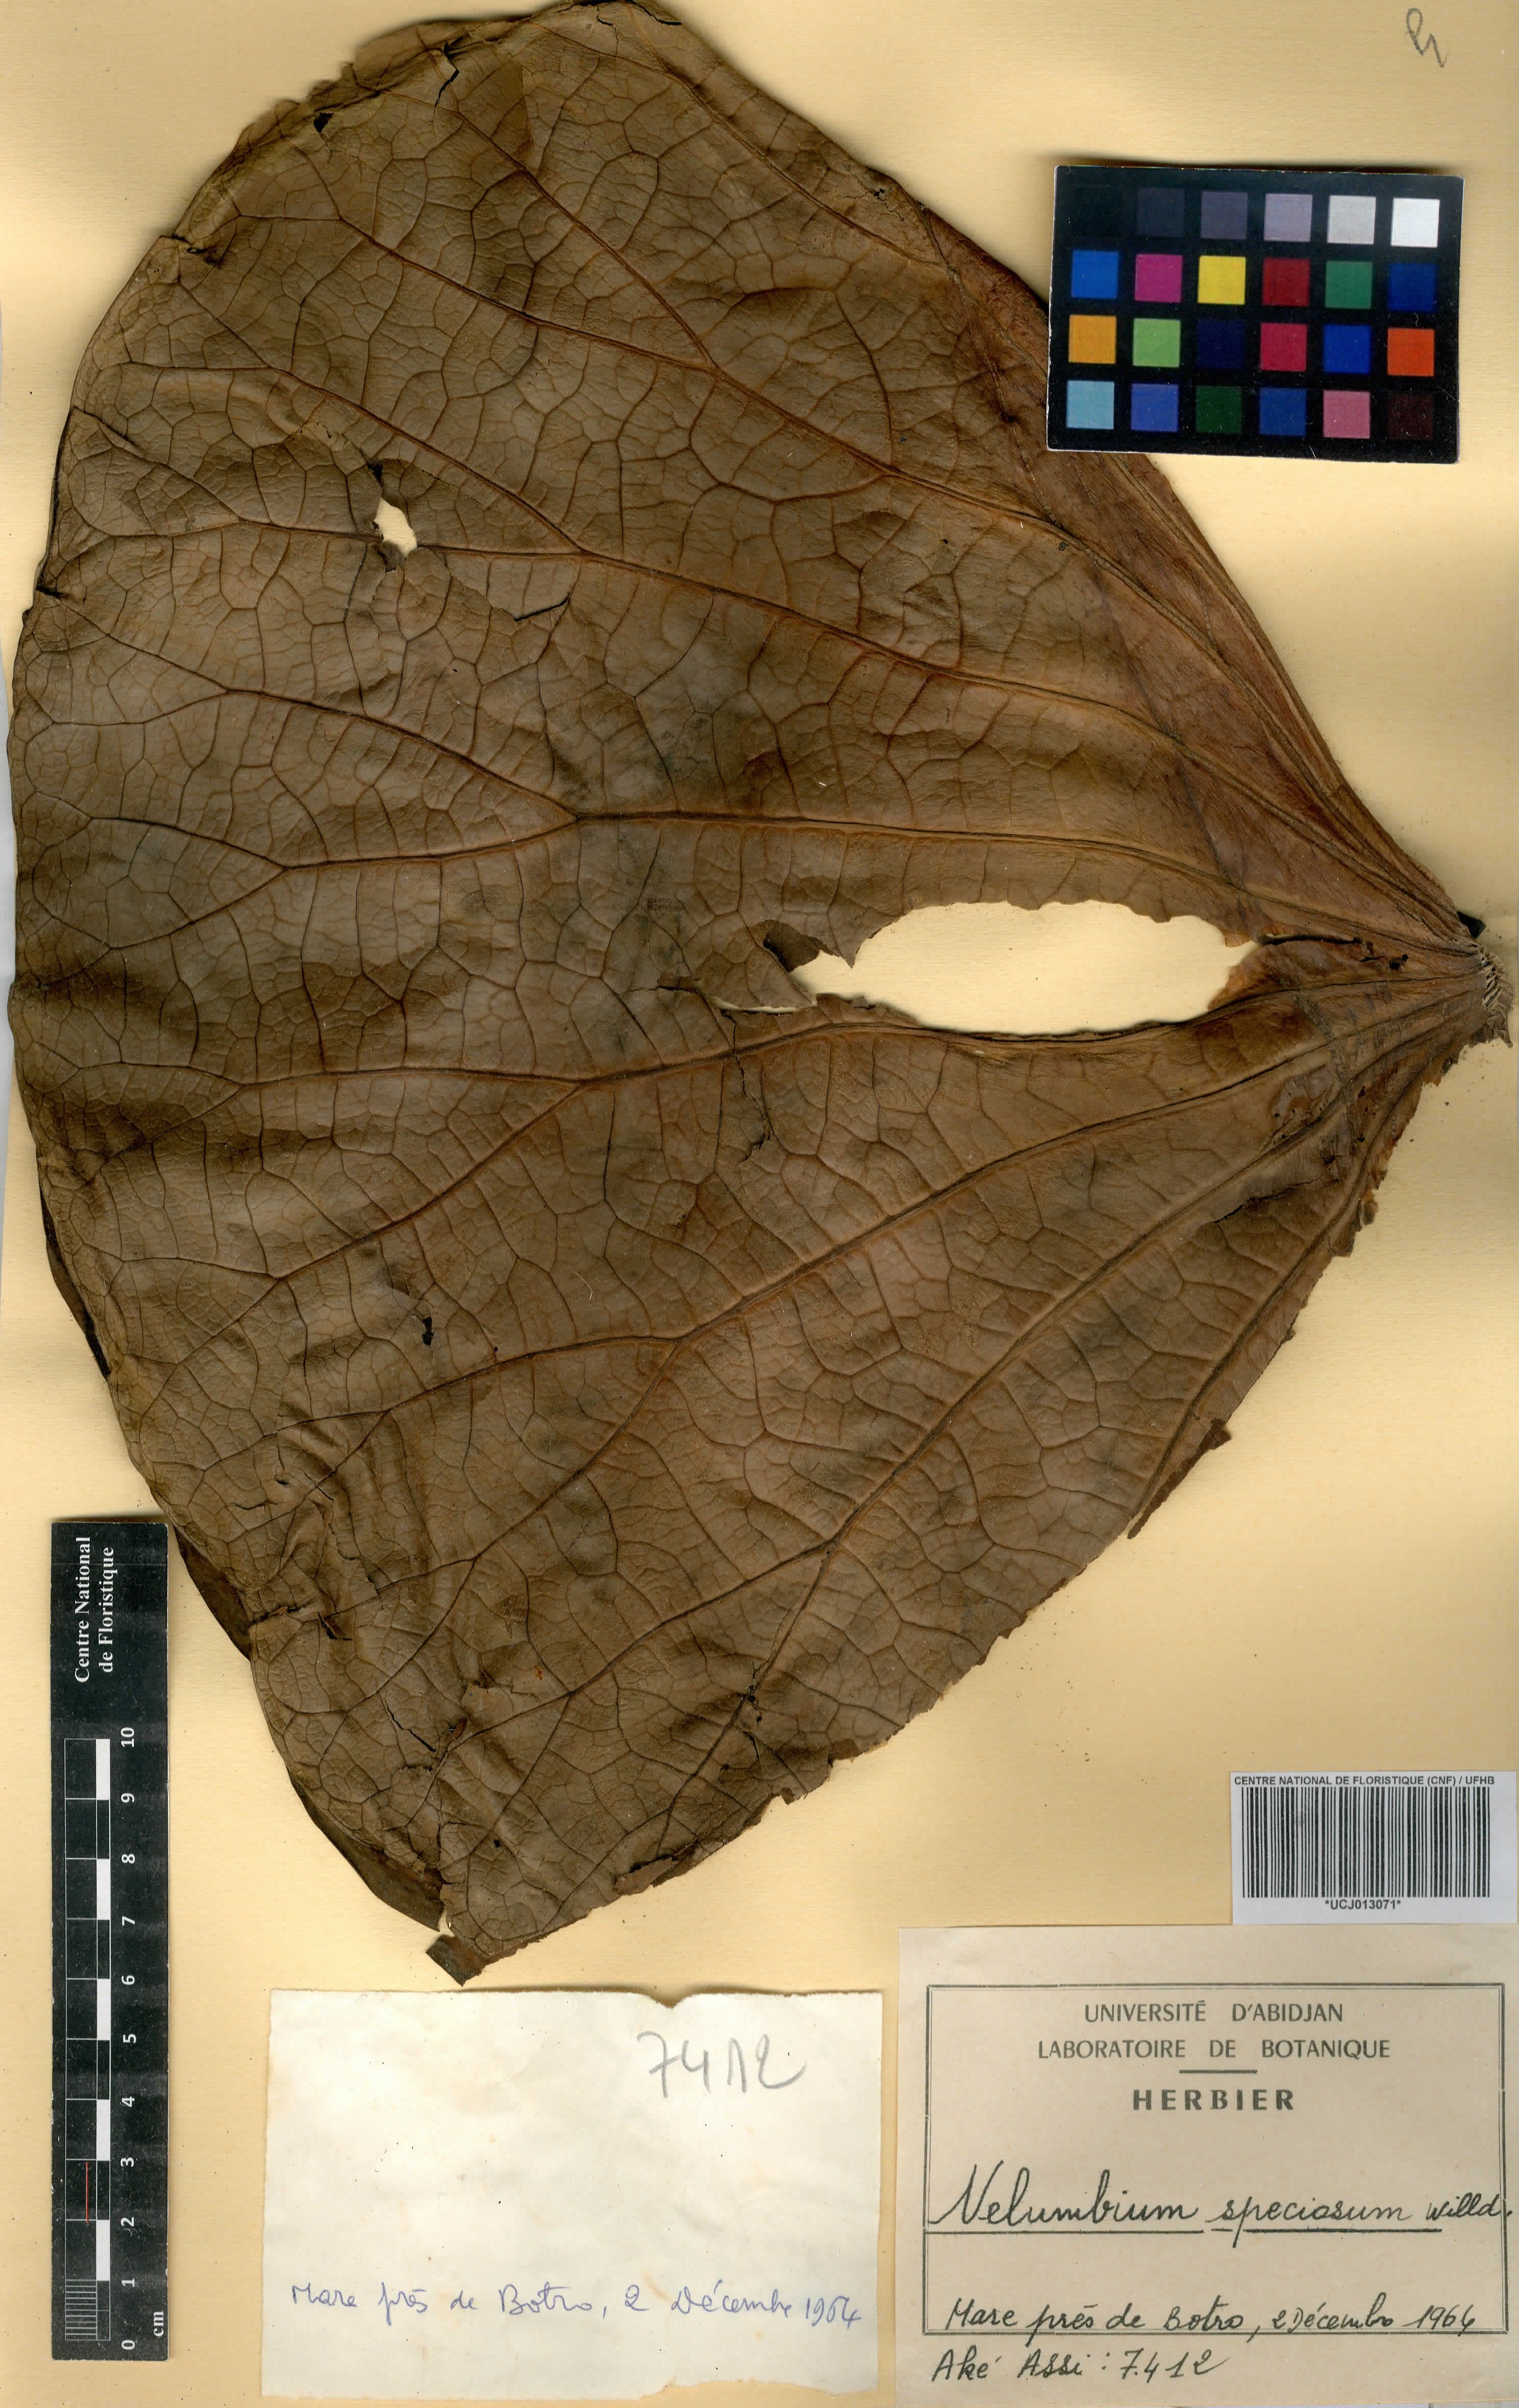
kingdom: Plantae
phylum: Tracheophyta
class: Magnoliopsida
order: Proteales
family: Nelumbonaceae
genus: Nelumbo
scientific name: Nelumbo nucifera
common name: Sacred lotus
